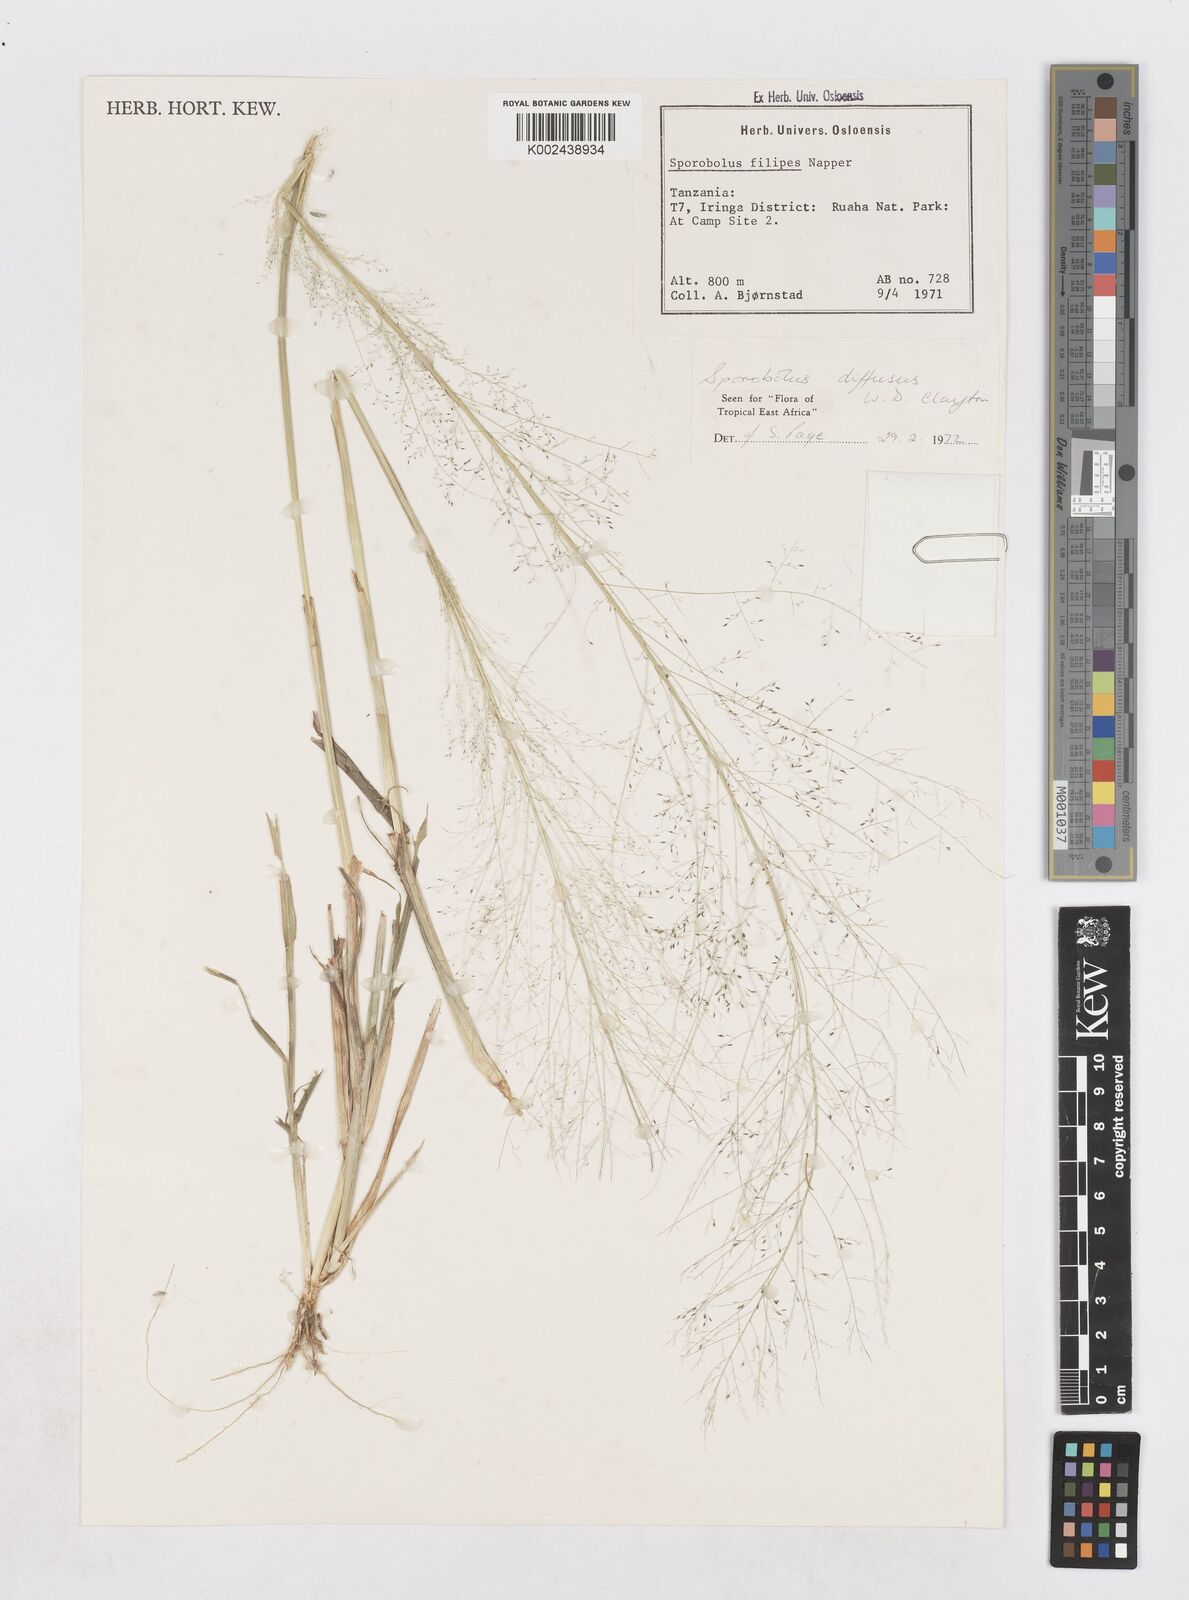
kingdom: Plantae
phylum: Tracheophyta
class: Liliopsida
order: Poales
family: Poaceae
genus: Sporobolus
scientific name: Sporobolus macranthelus
